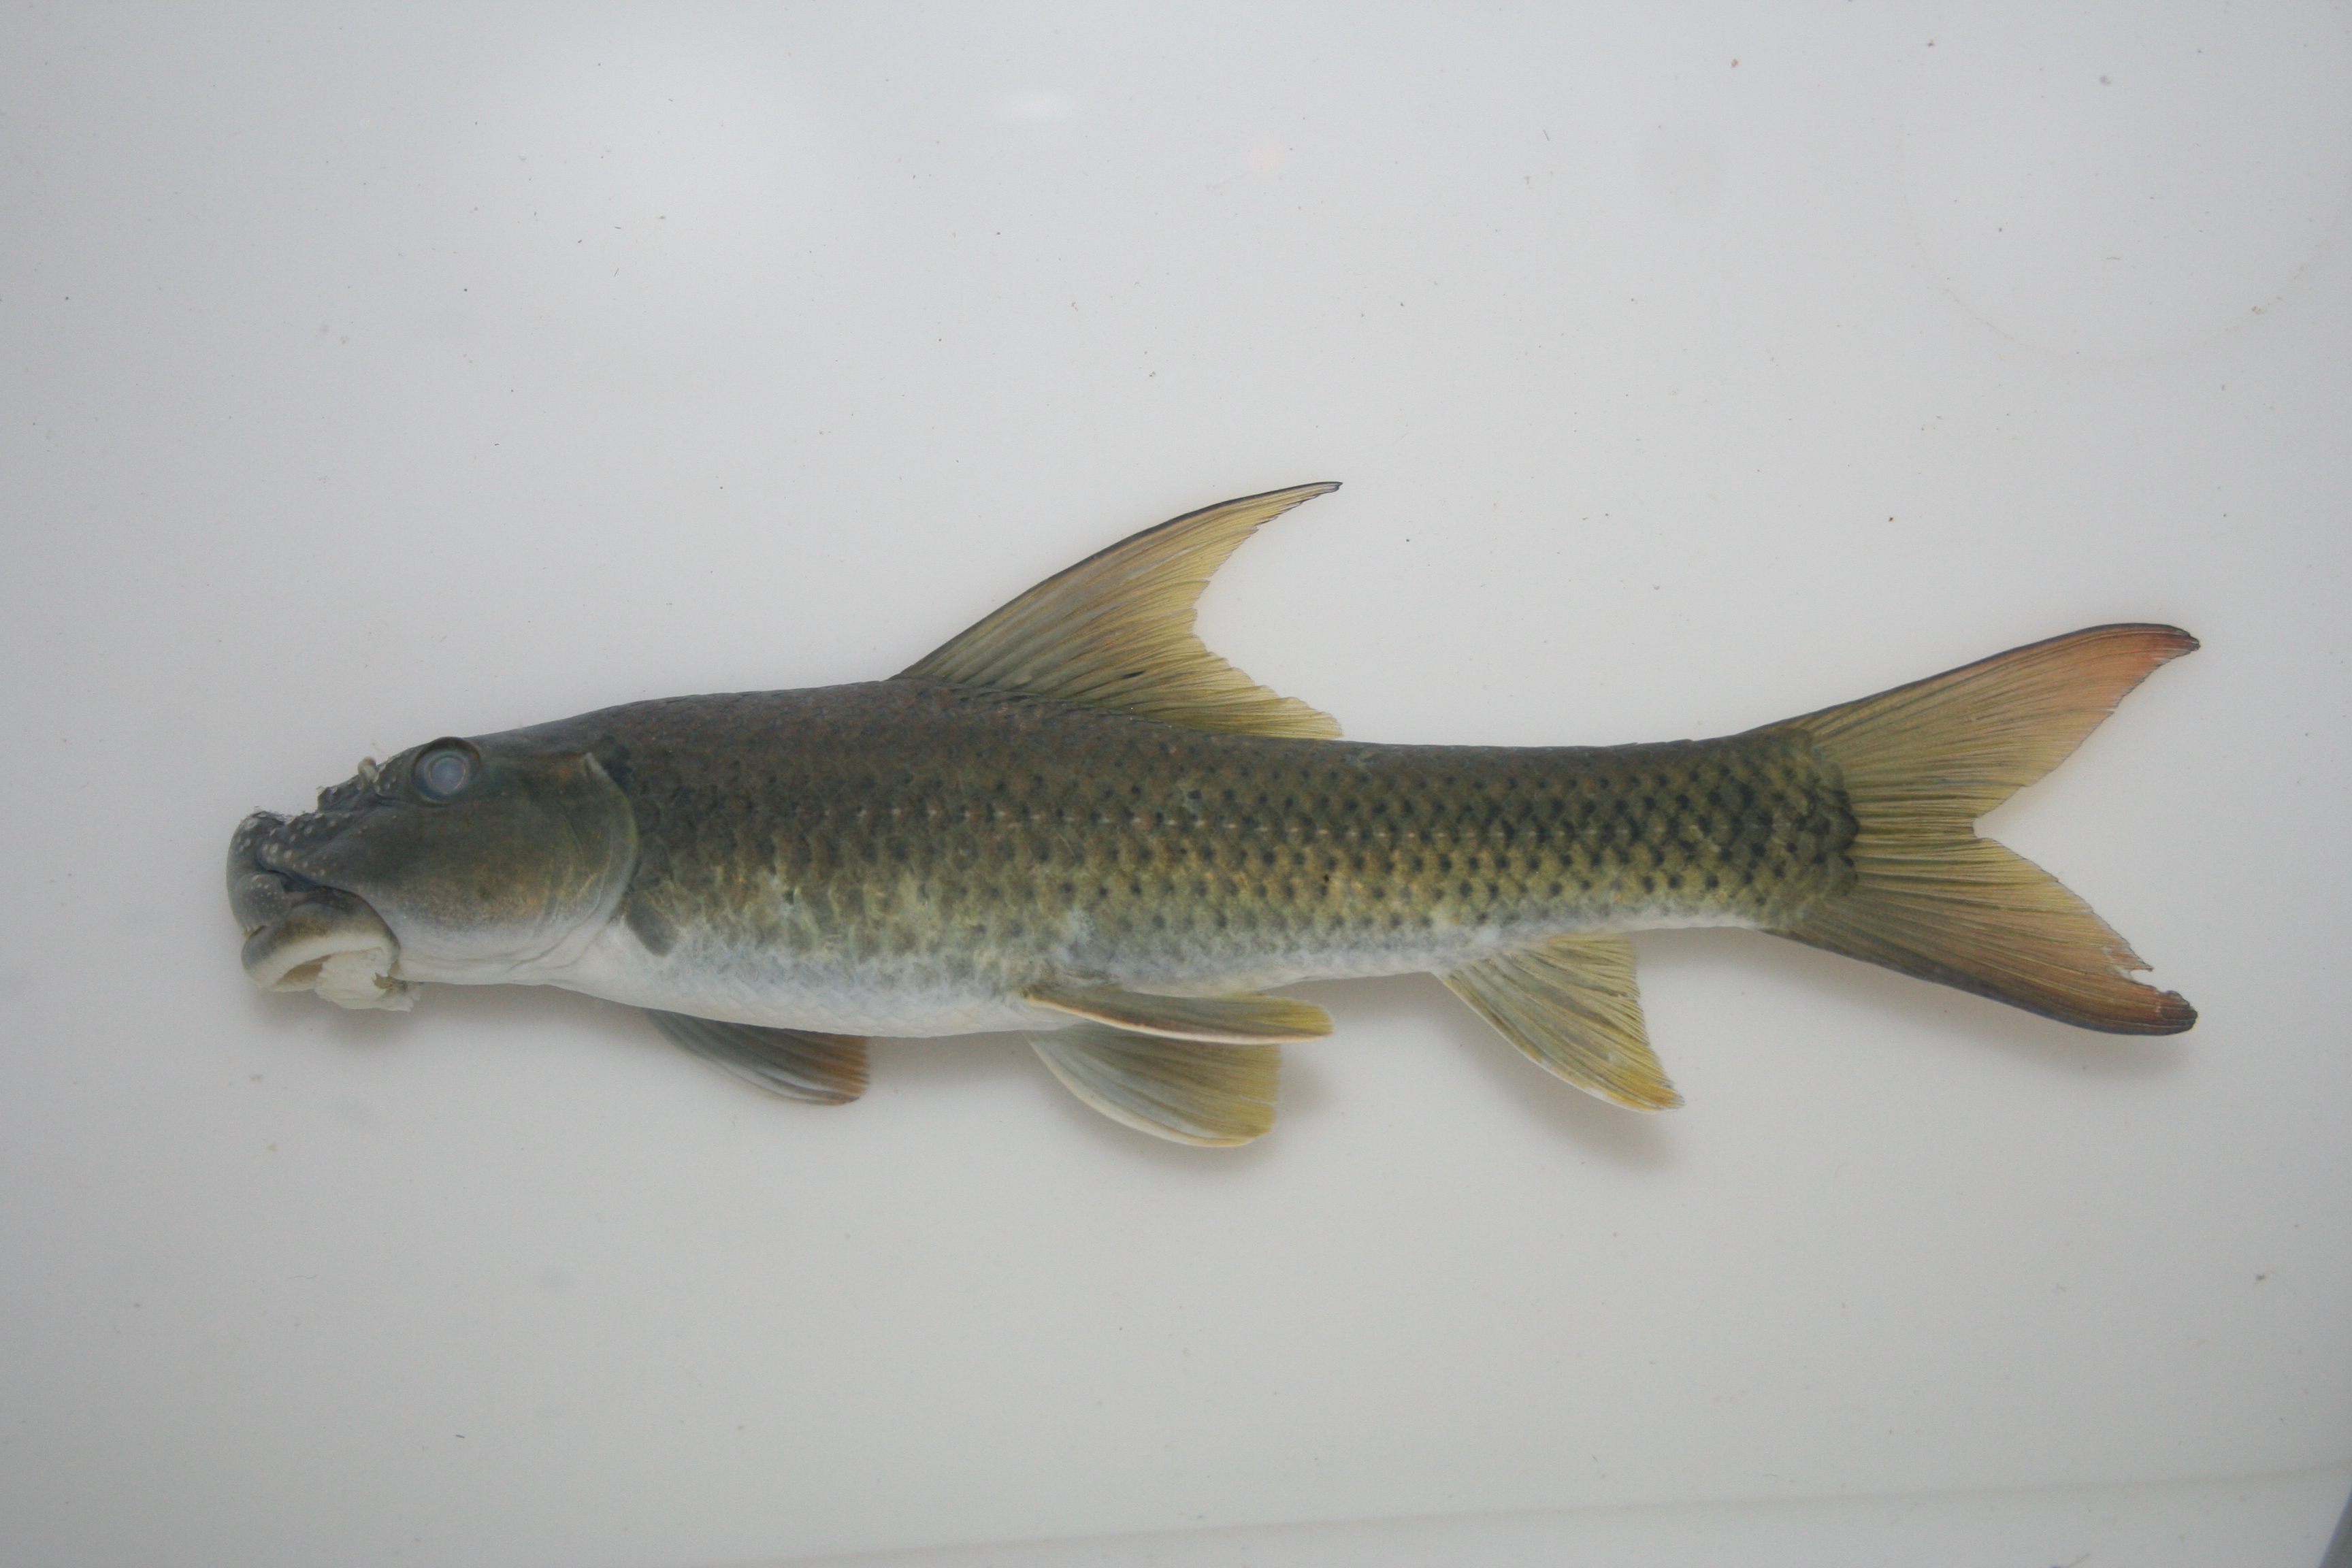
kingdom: Animalia
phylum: Chordata
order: Cypriniformes
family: Cyprinidae
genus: Labeo
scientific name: Labeo
